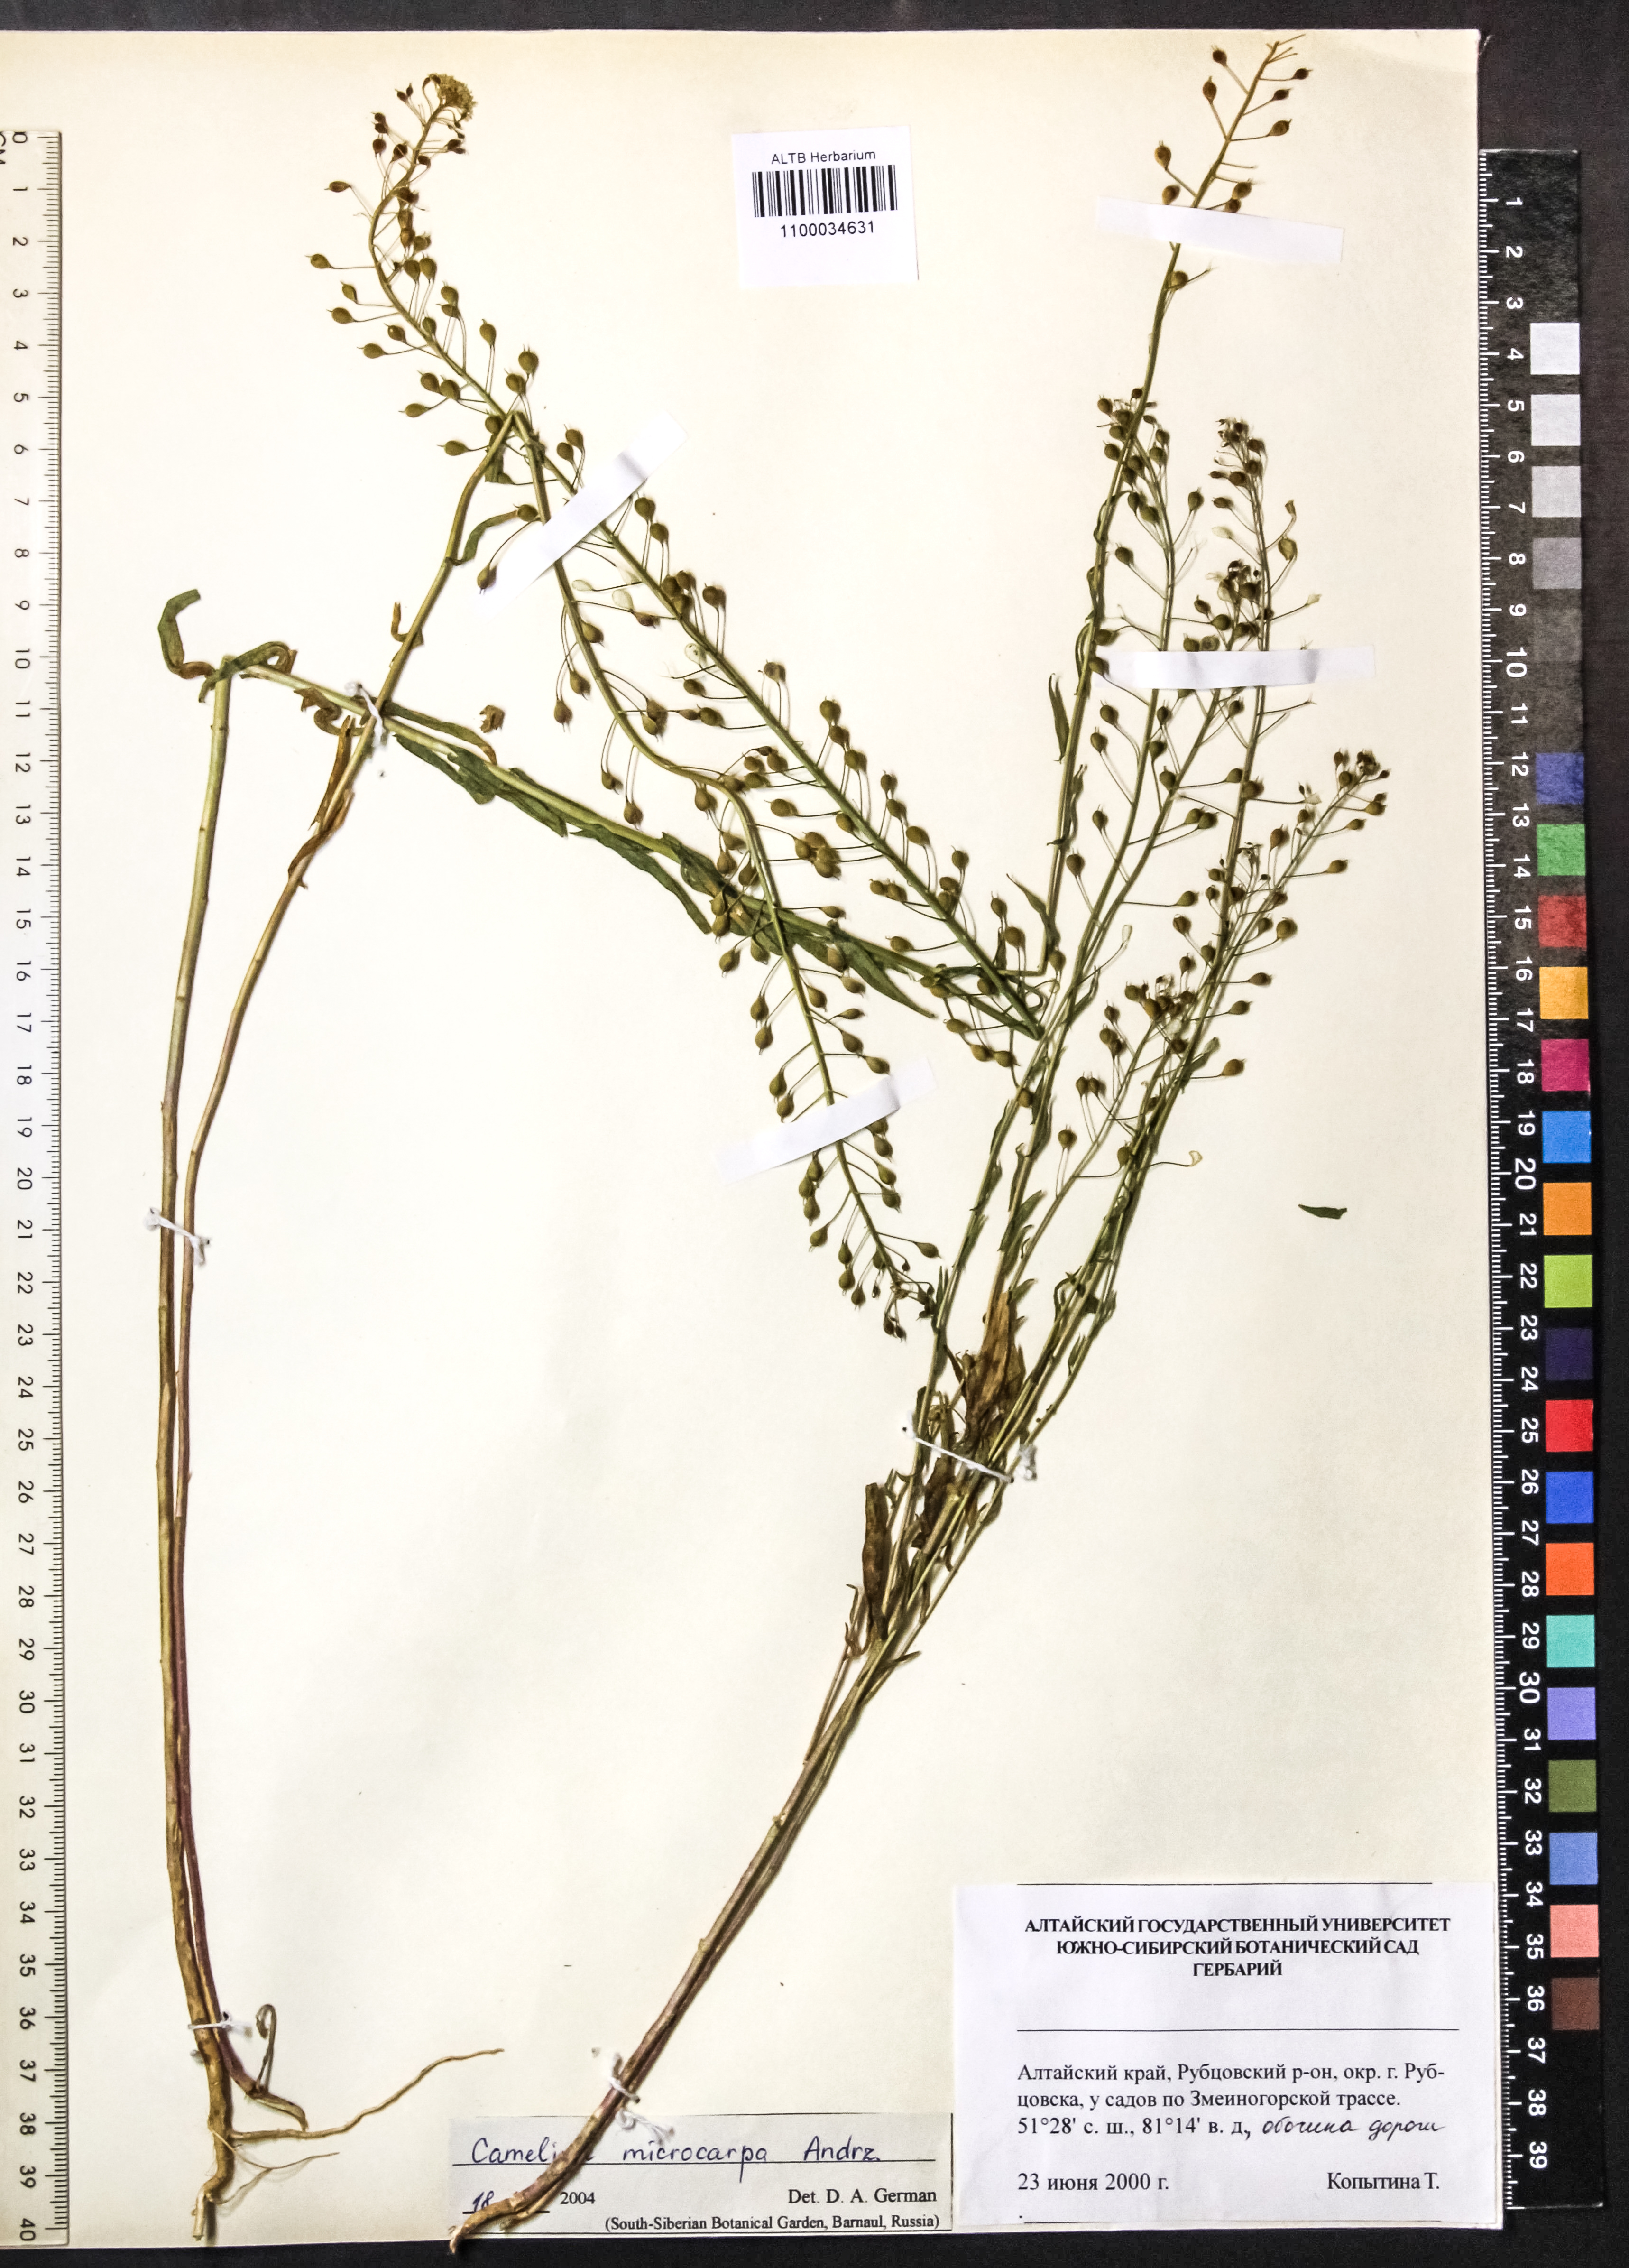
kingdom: Plantae
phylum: Tracheophyta
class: Magnoliopsida
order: Brassicales
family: Brassicaceae
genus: Camelina
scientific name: Camelina microcarpa
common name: Lesser gold-of-pleasure
